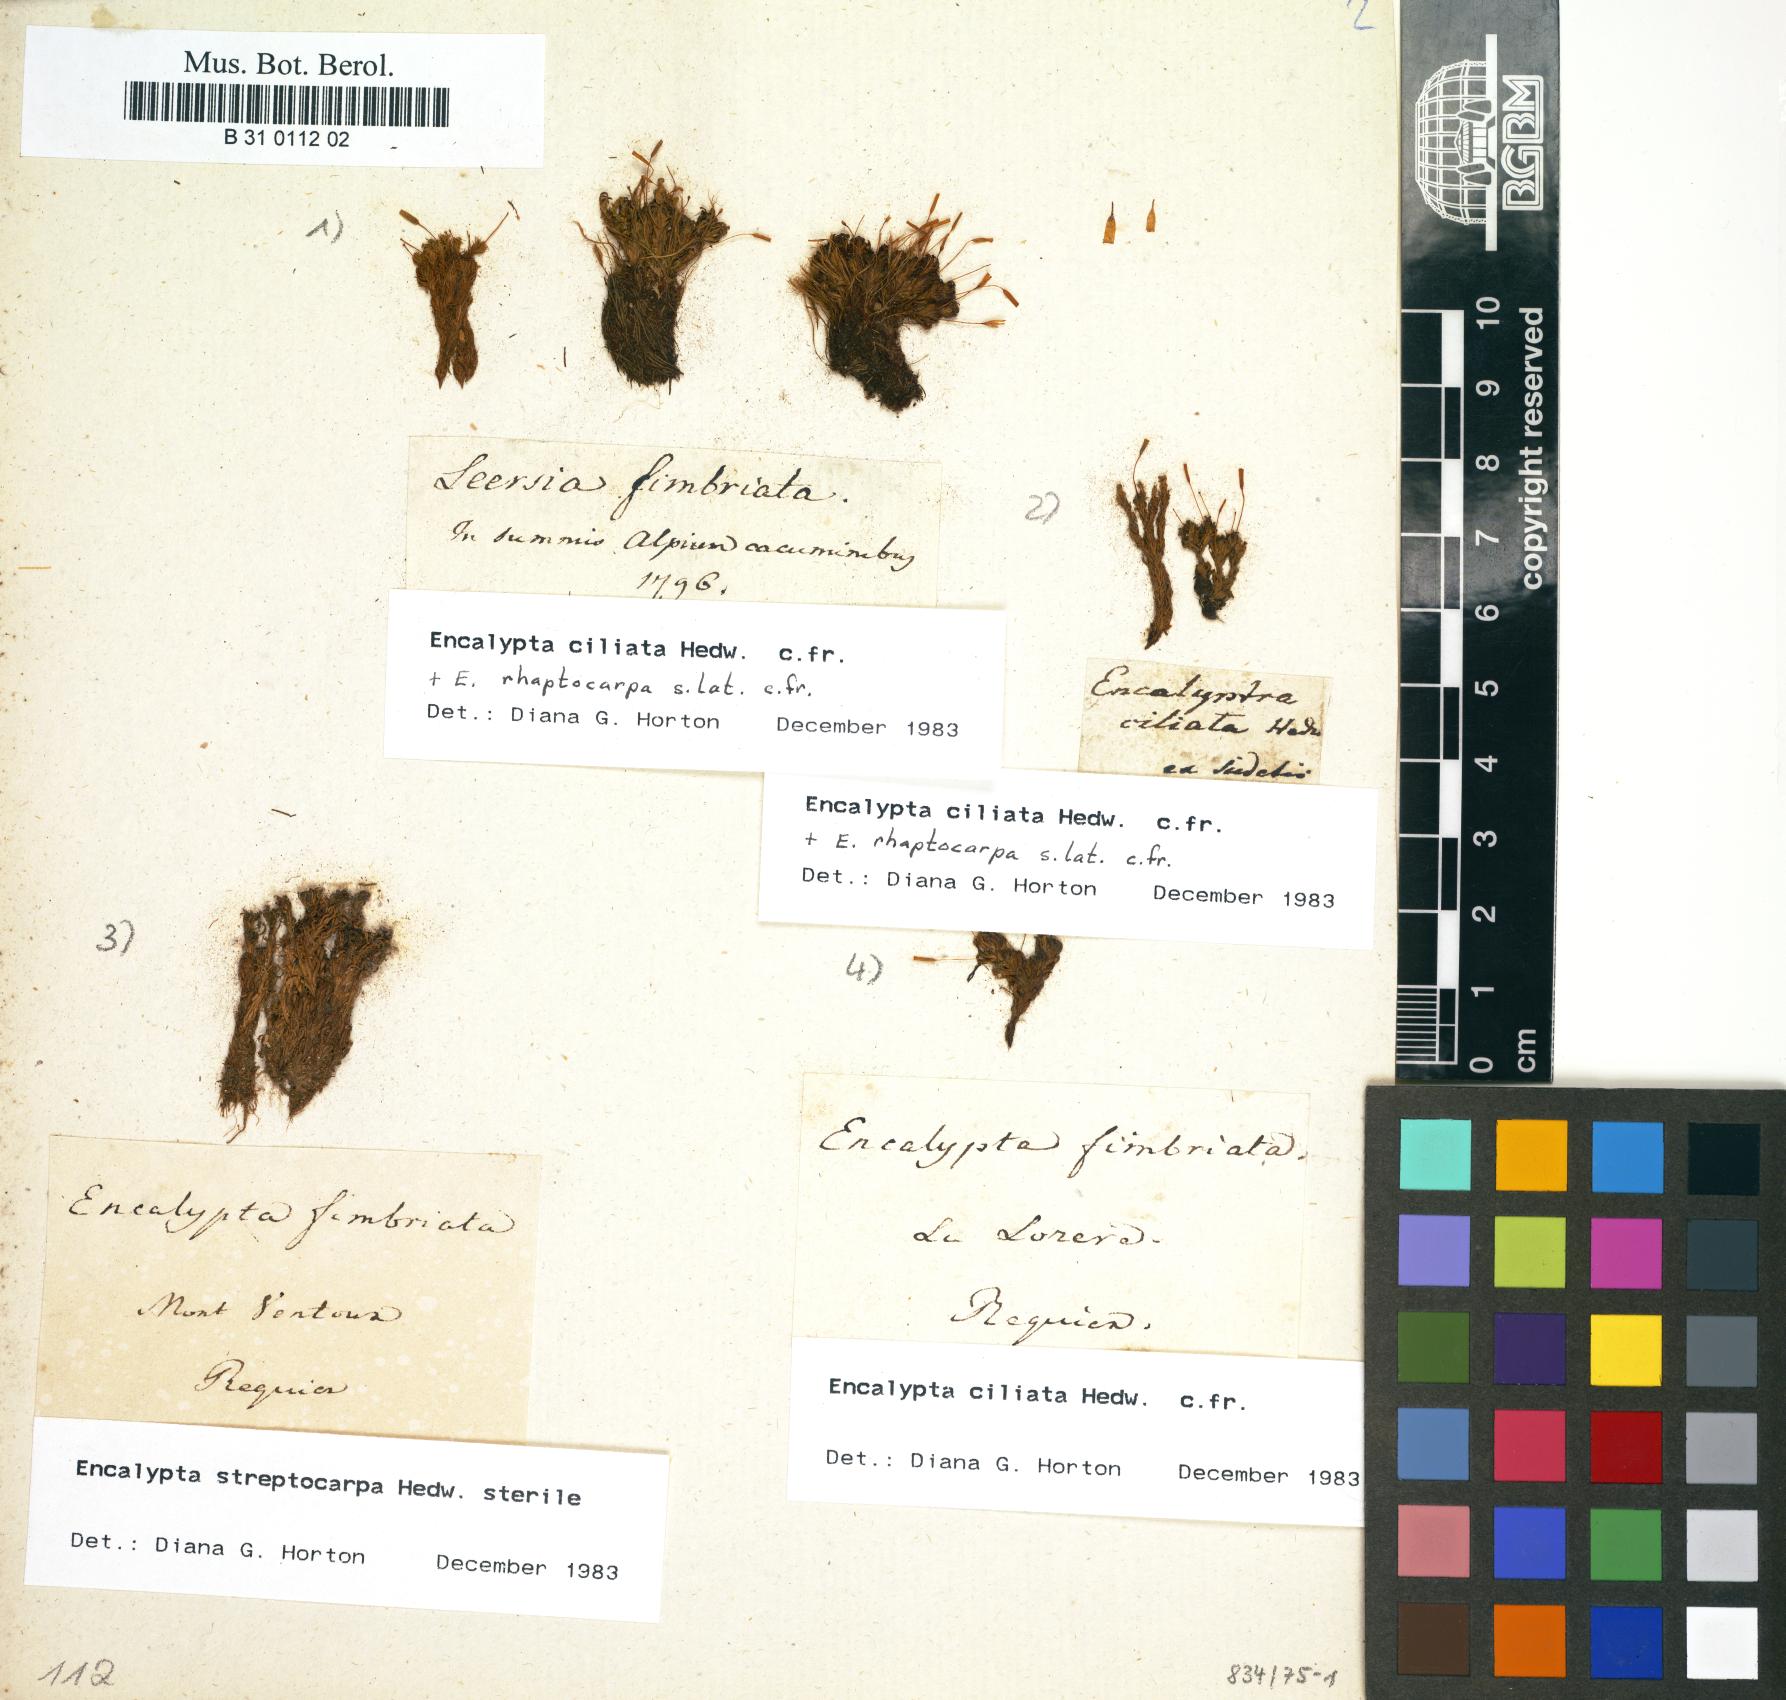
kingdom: Plantae
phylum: Bryophyta
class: Bryopsida
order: Encalyptales
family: Encalyptaceae
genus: Encalypta
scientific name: Encalypta ciliata
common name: Fringed extinguisher-moss
